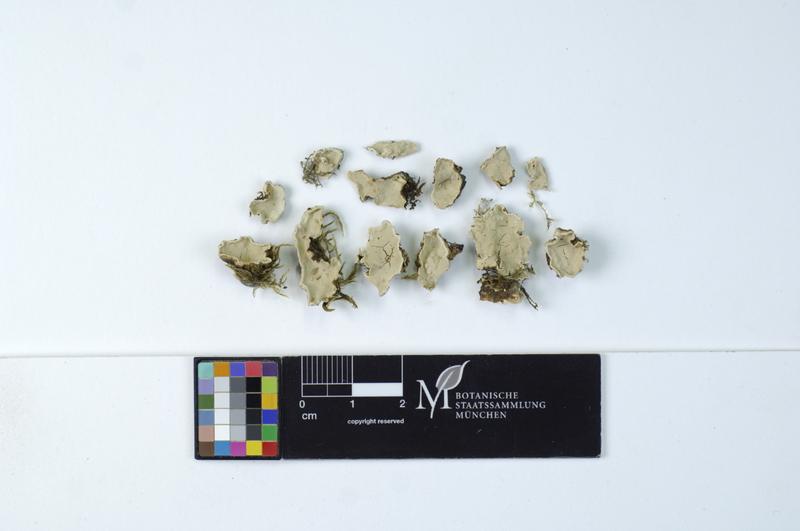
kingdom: Plantae
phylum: Tracheophyta
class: Magnoliopsida
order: Fagales
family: Fagaceae
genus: Quercus
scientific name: Quercus petraea
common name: Sessile oak
